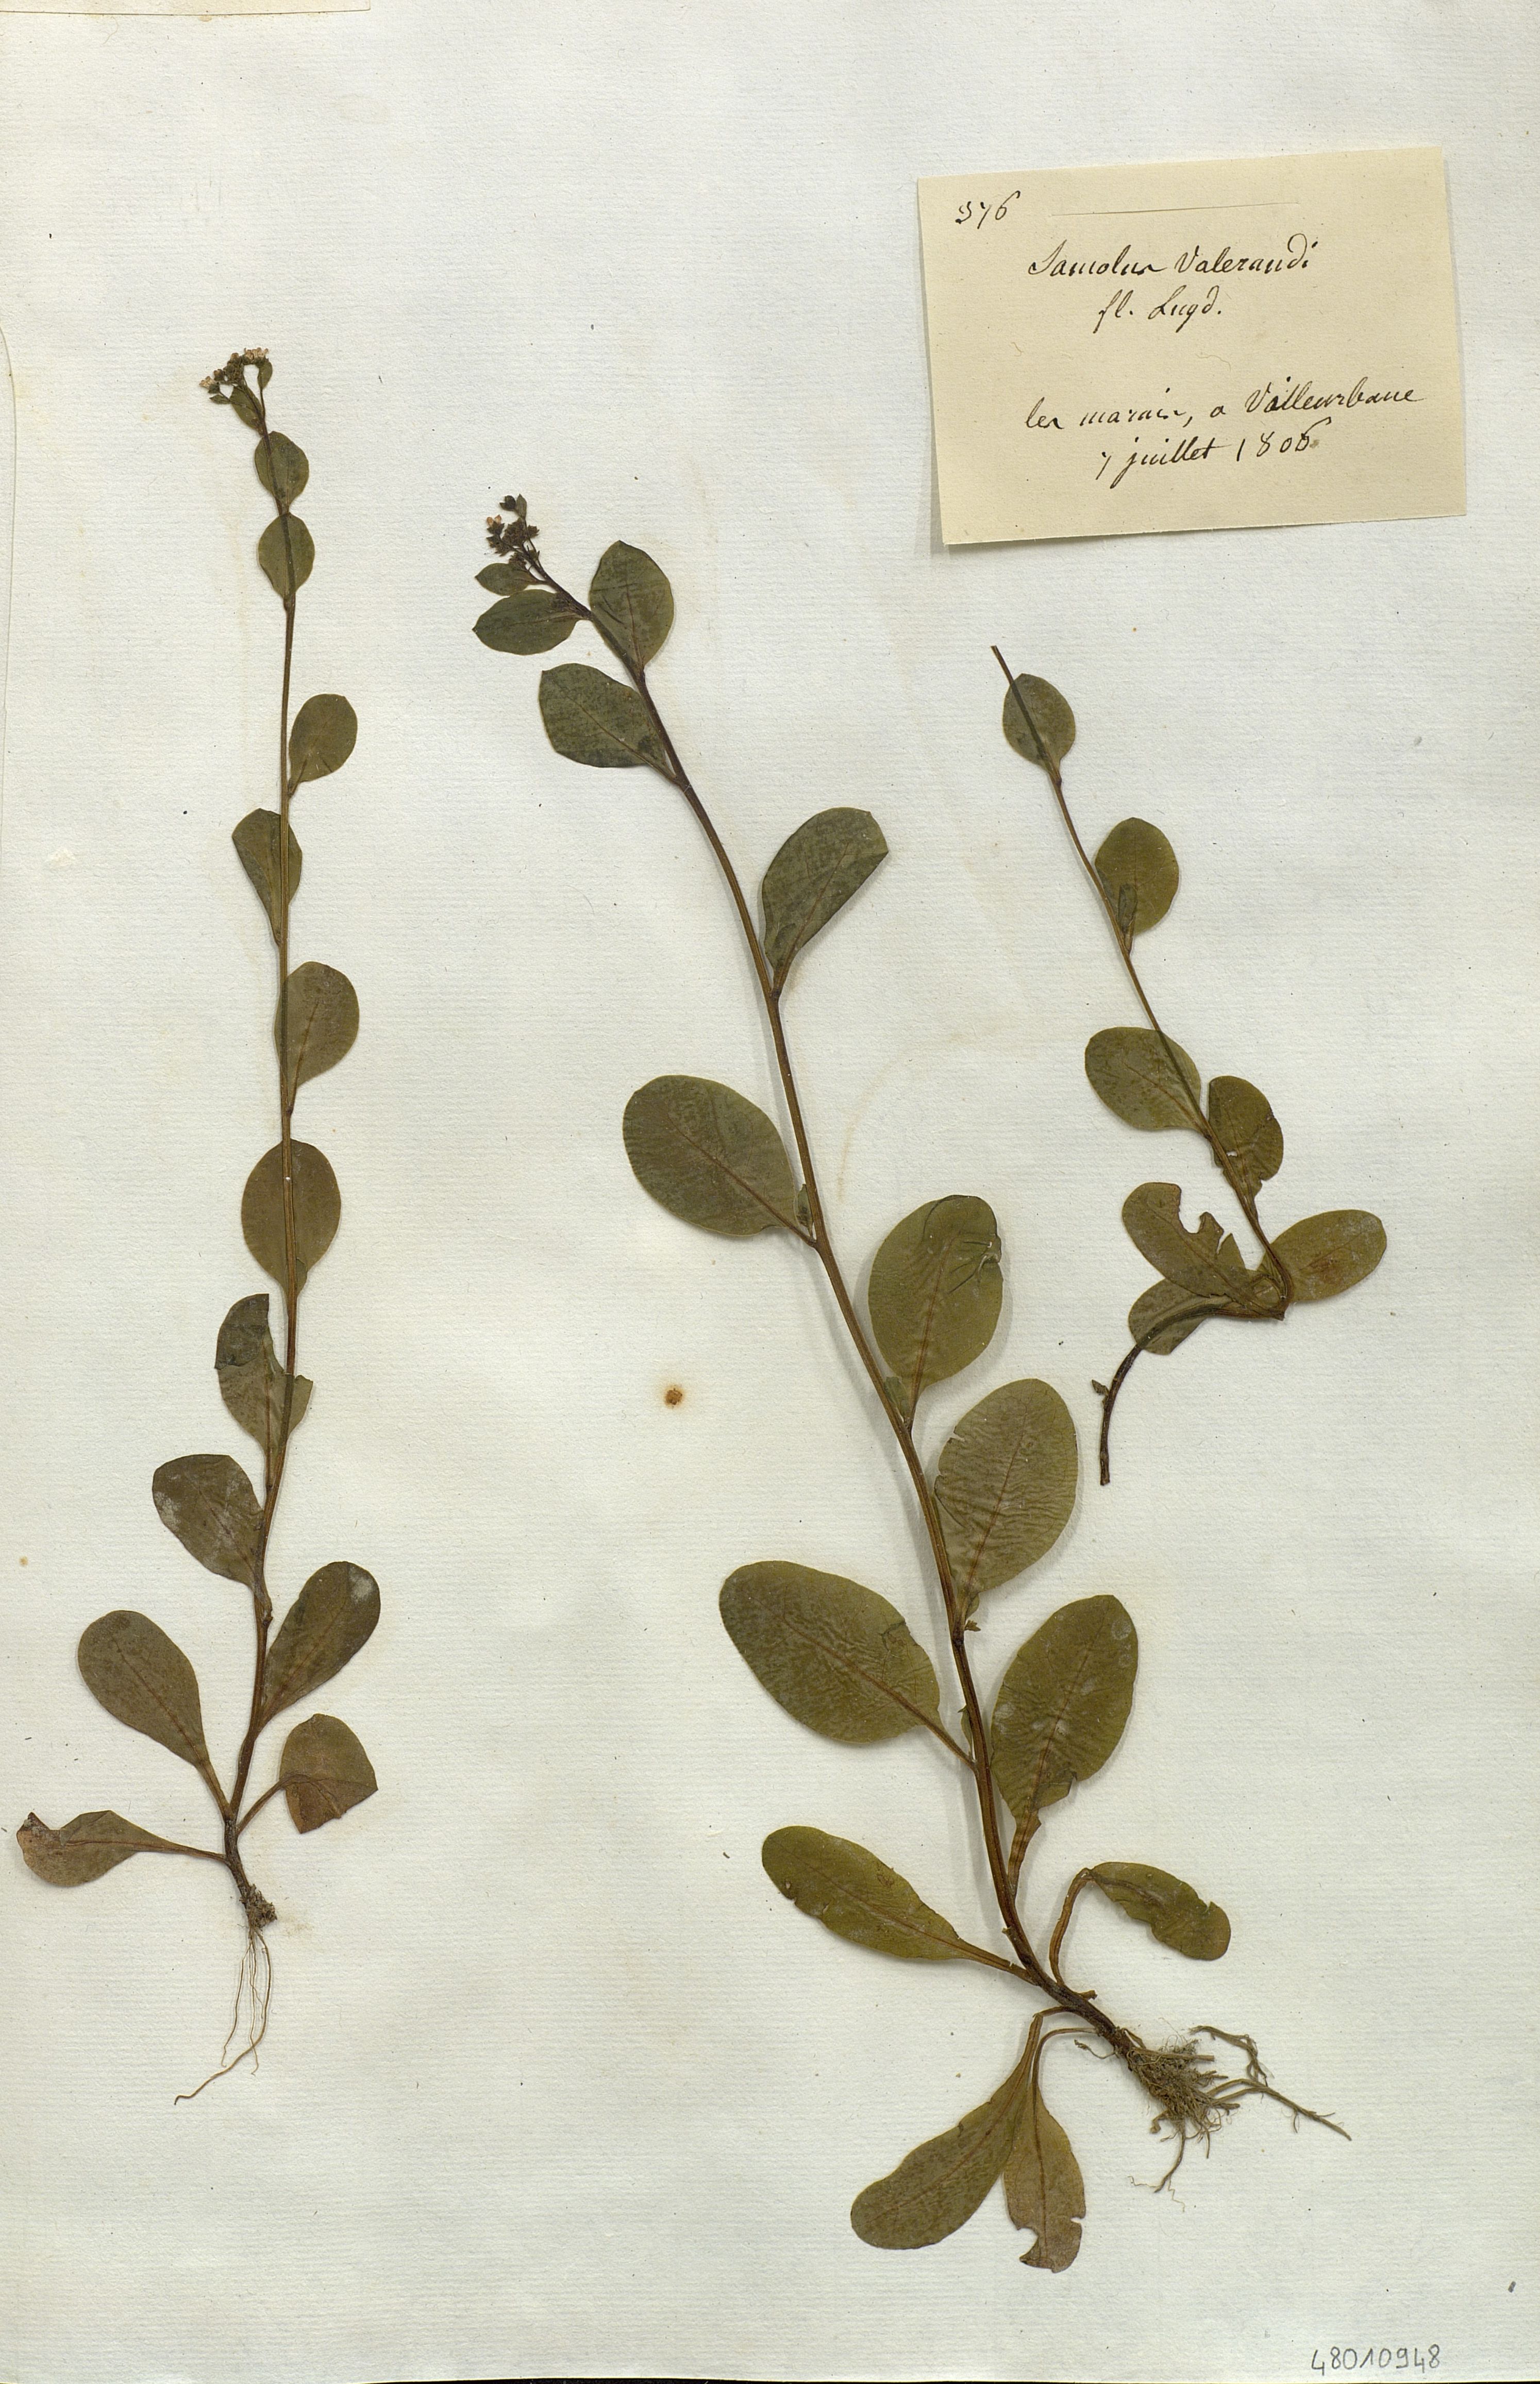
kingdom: Plantae
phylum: Tracheophyta
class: Magnoliopsida
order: Ericales
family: Primulaceae
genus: Samolus
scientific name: Samolus valerandi
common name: Brookweed
